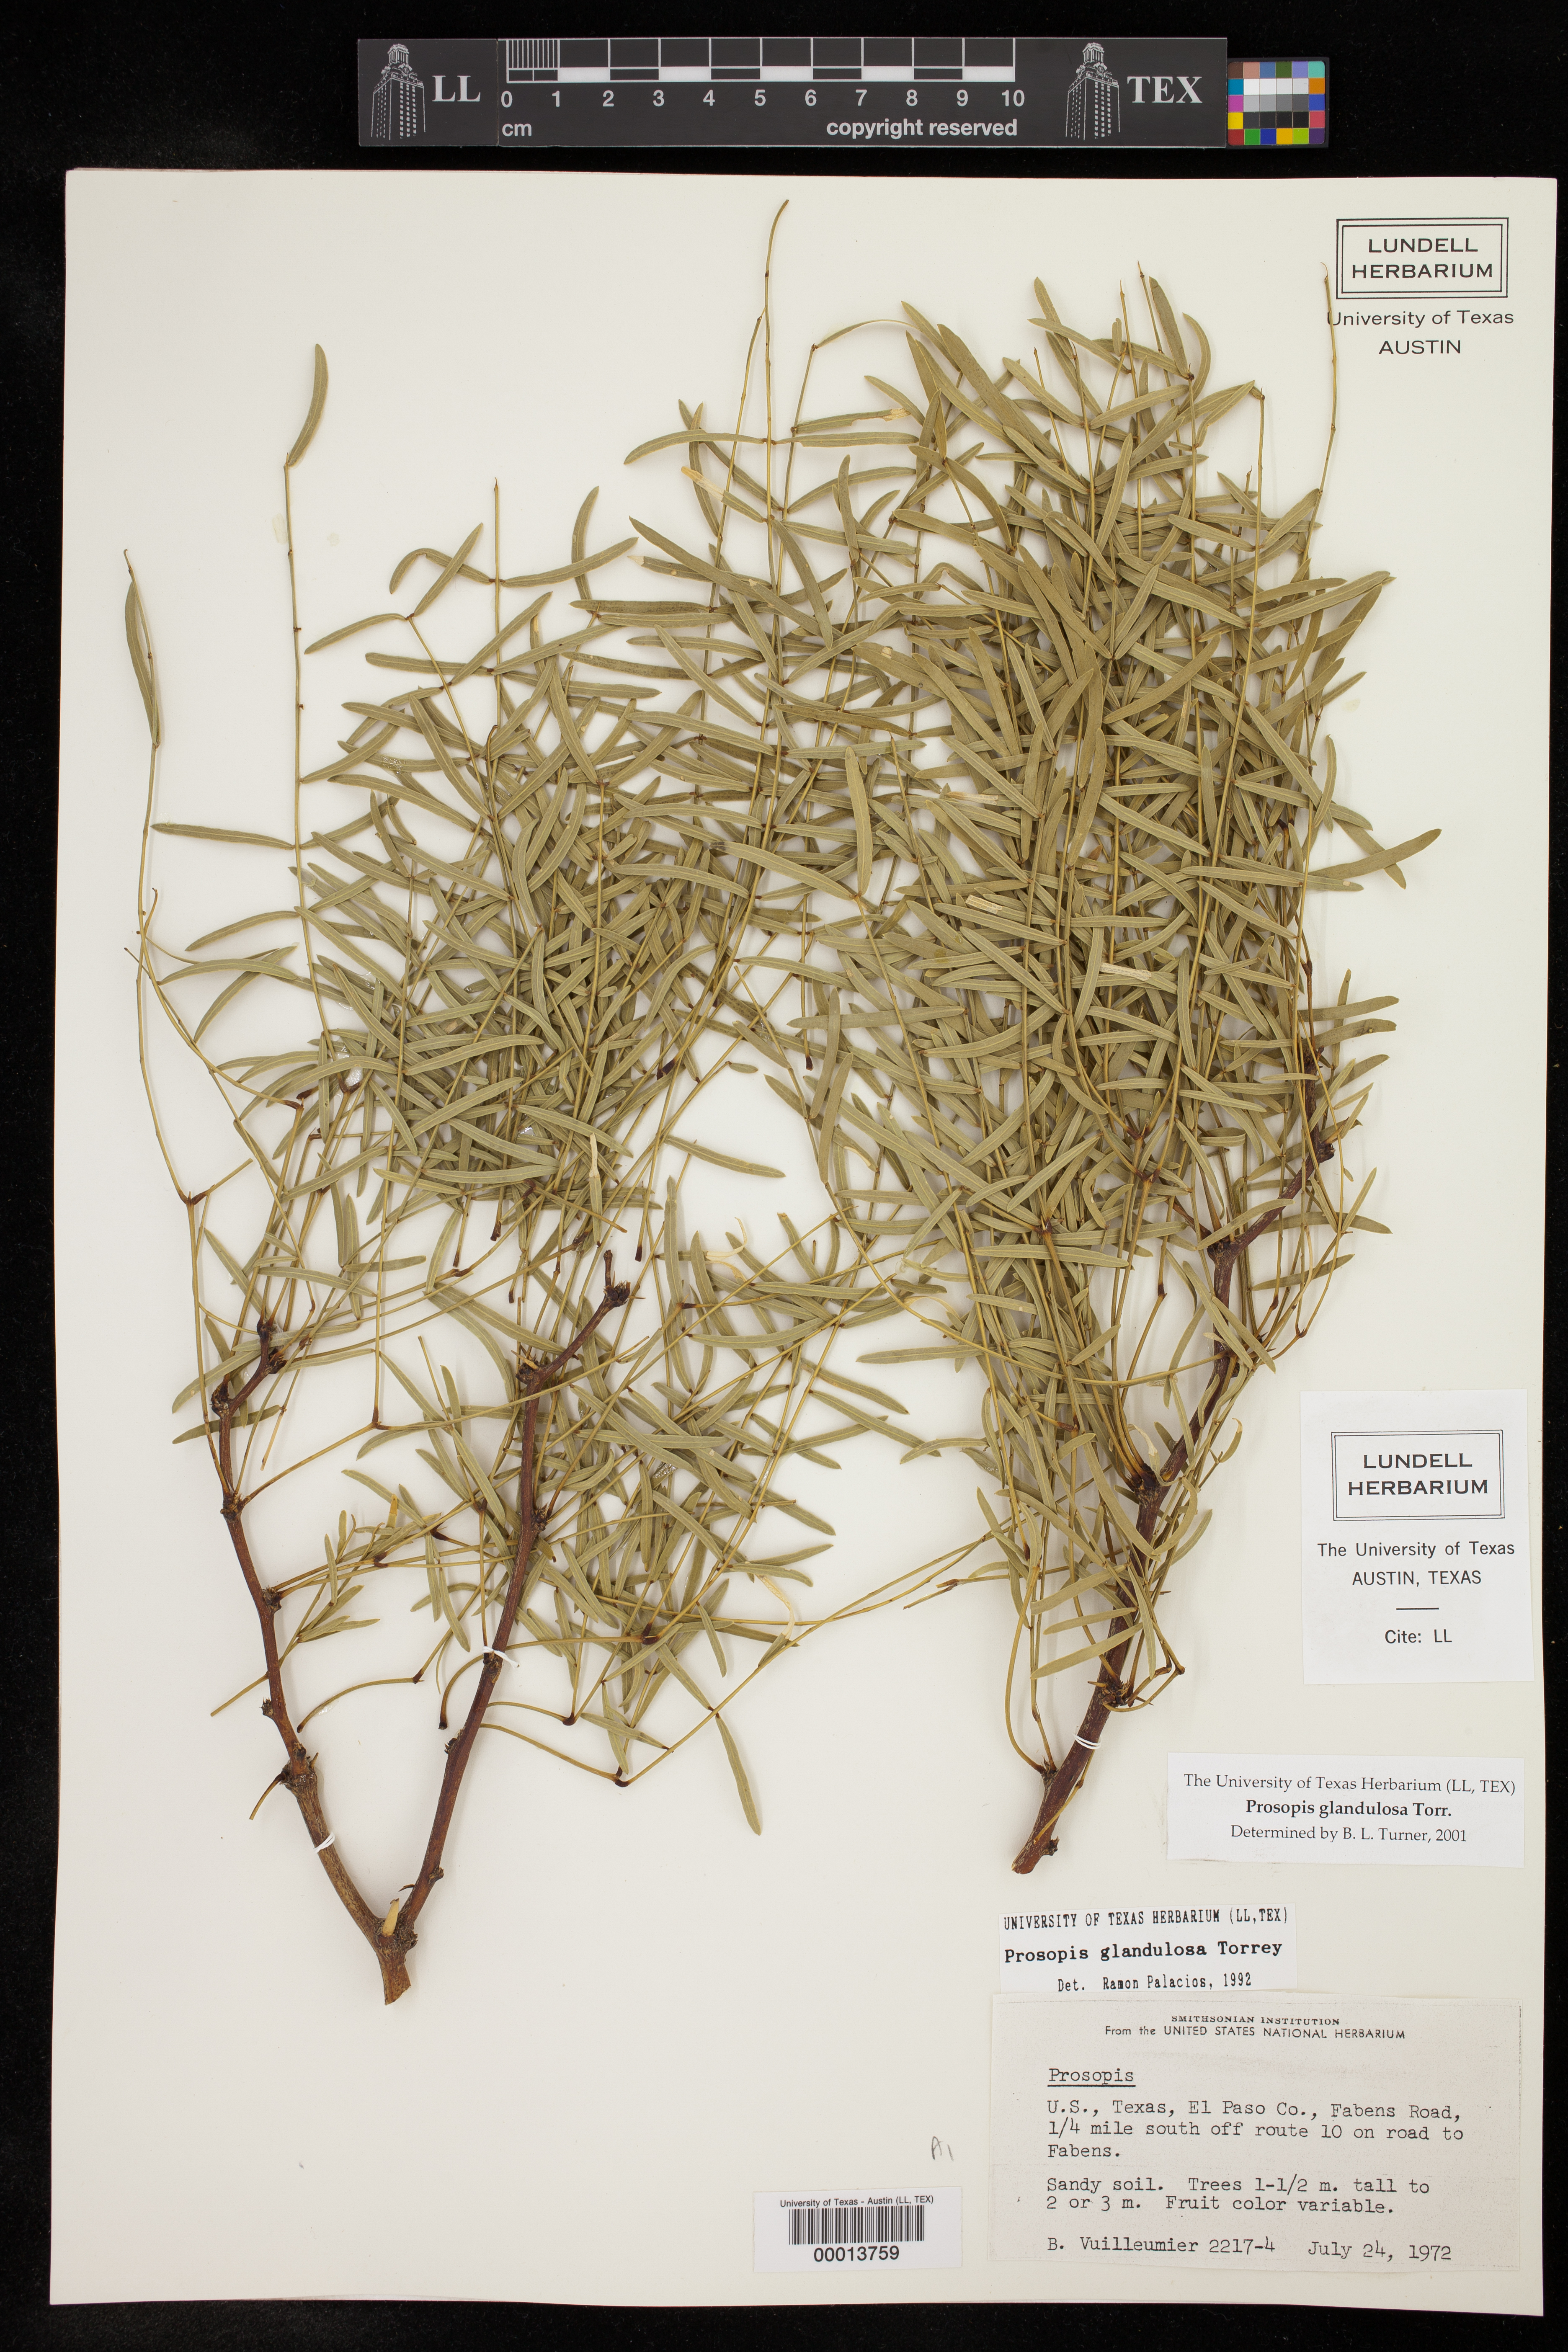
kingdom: Plantae
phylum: Tracheophyta
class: Magnoliopsida
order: Fabales
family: Fabaceae
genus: Prosopis
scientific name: Prosopis glandulosa
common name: Honey mesquite
